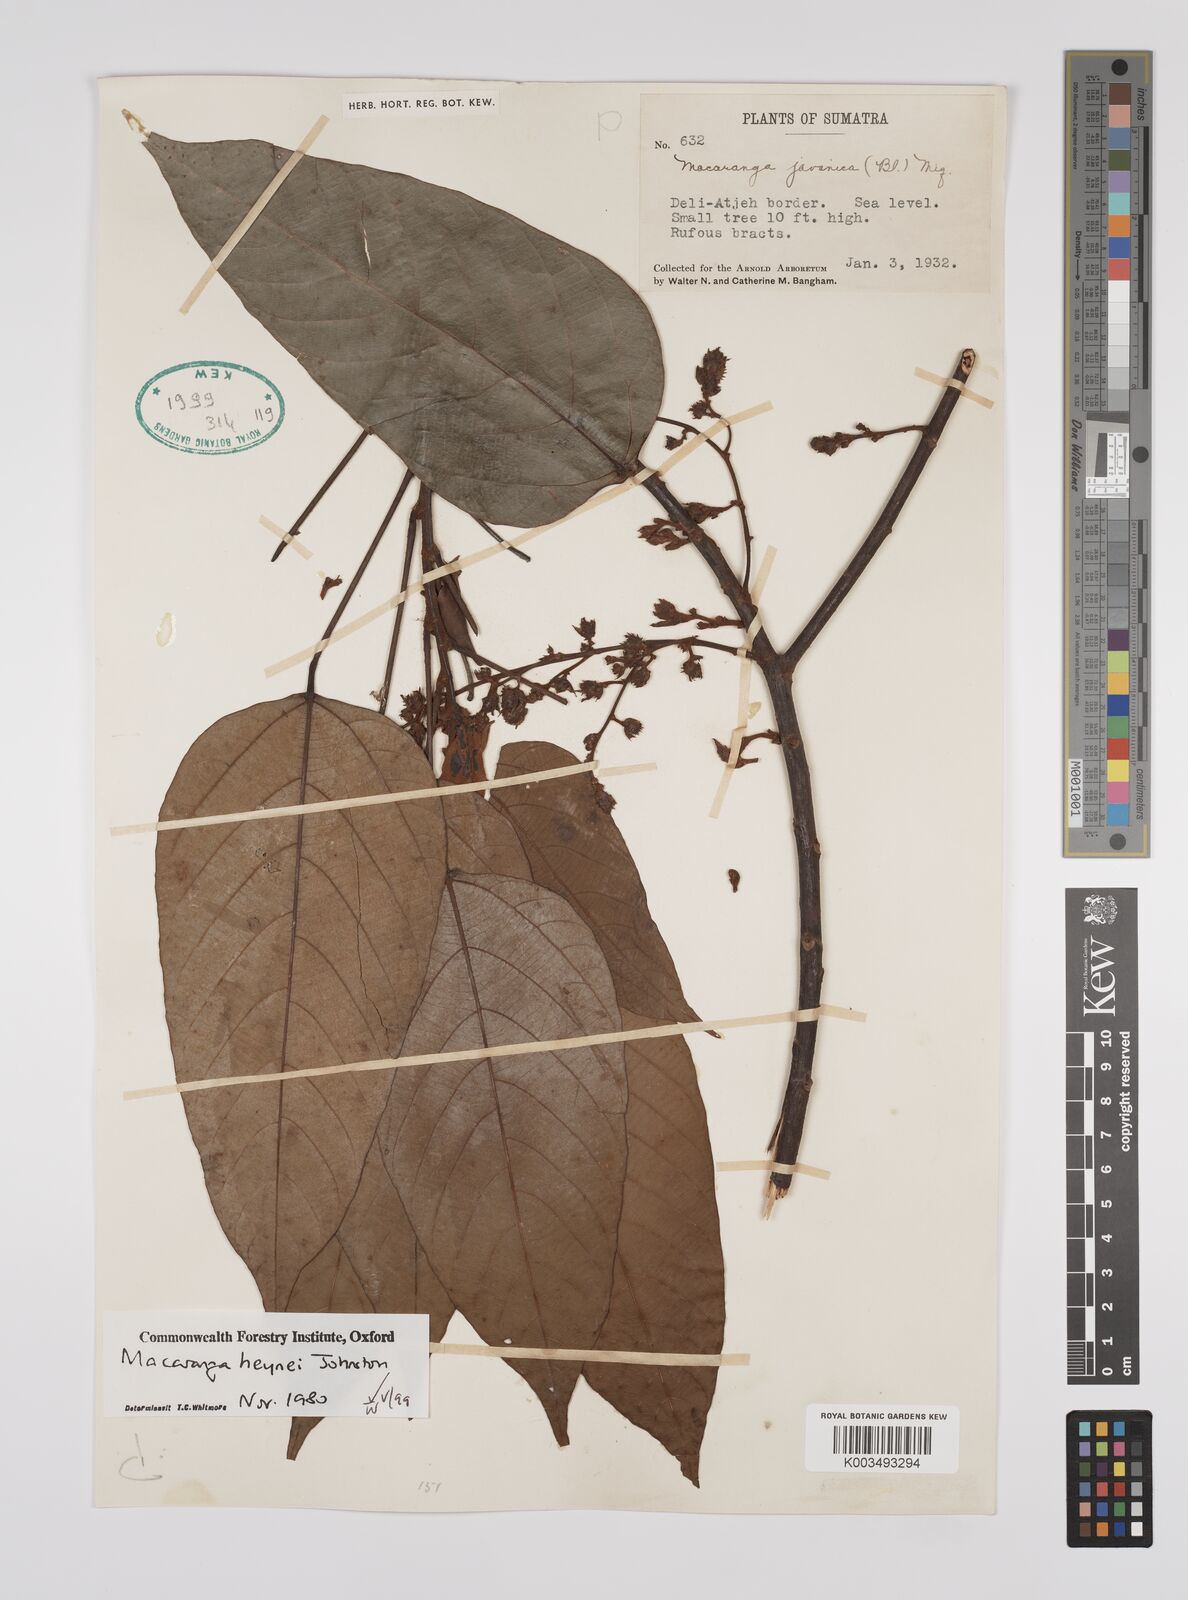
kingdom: Plantae
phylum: Tracheophyta
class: Magnoliopsida
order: Malpighiales
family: Euphorbiaceae
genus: Macaranga
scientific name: Macaranga heynei
